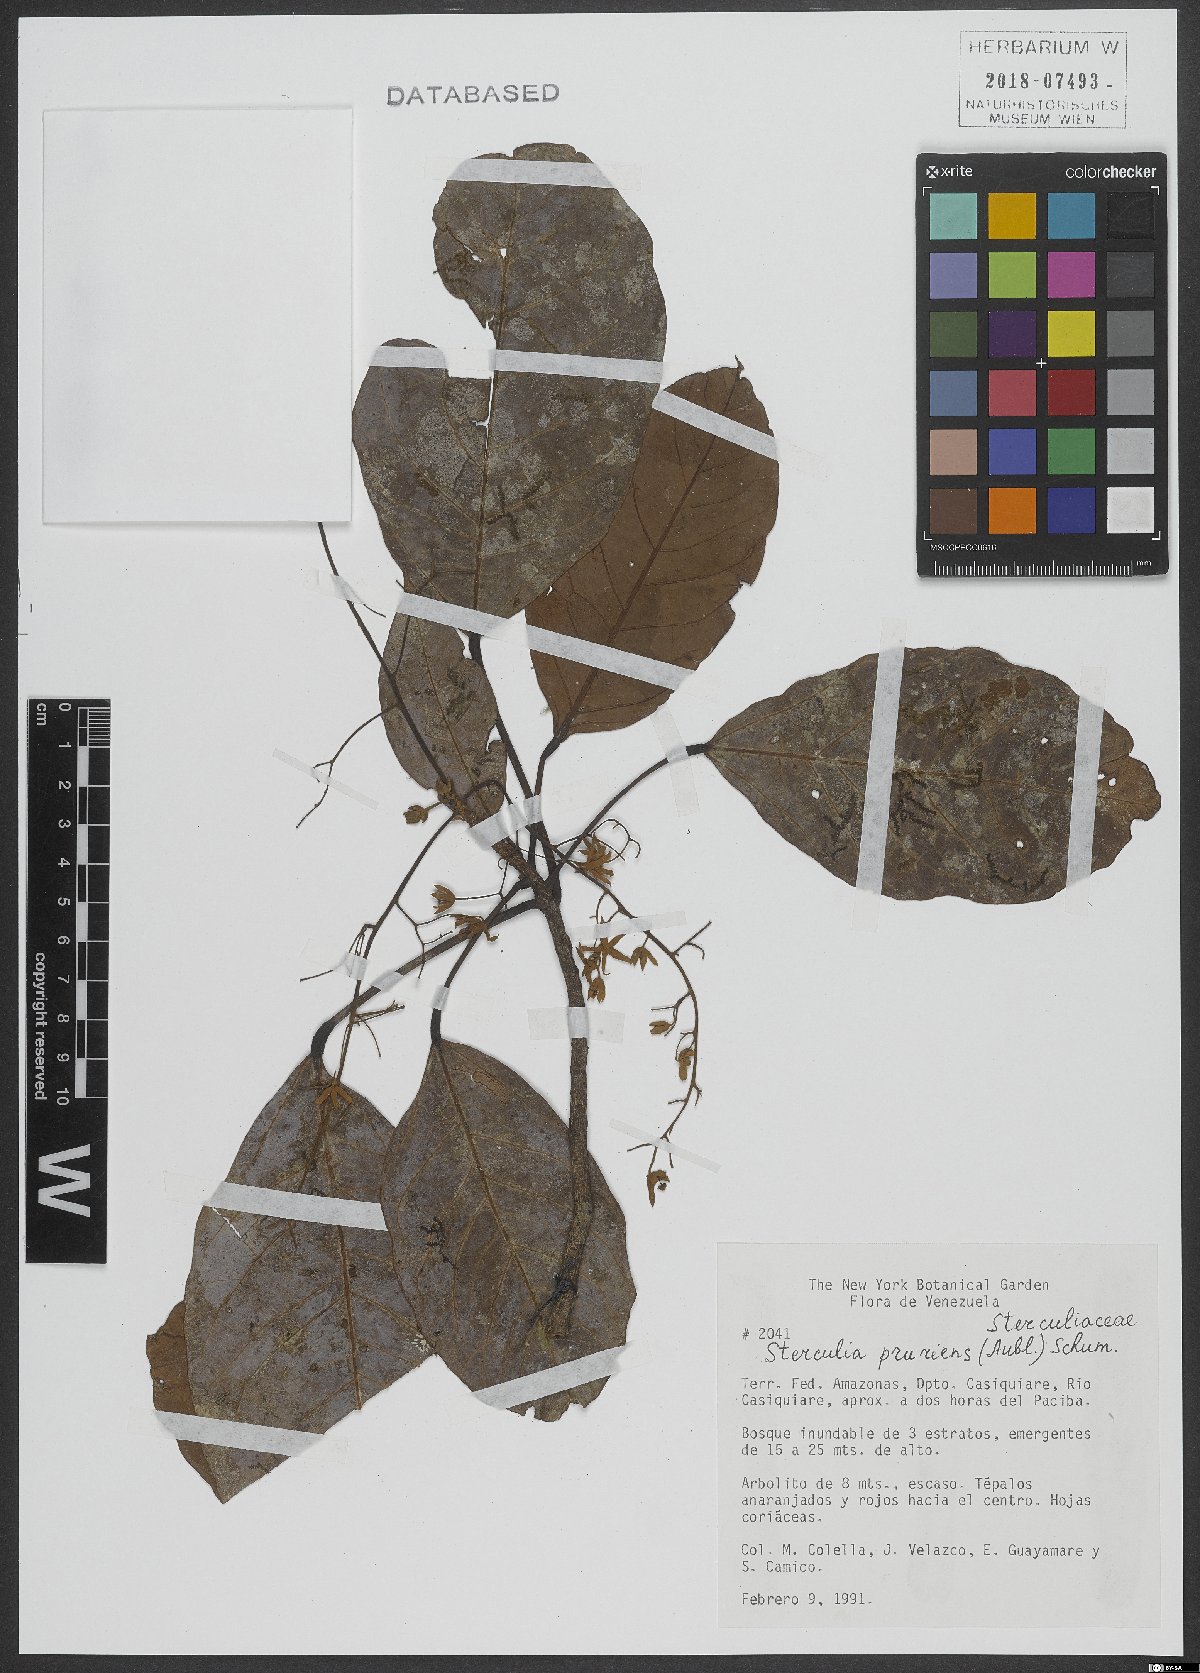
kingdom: Plantae
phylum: Tracheophyta
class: Magnoliopsida
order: Malvales
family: Malvaceae
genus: Sterculia
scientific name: Sterculia pruriens
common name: Grand mahot
